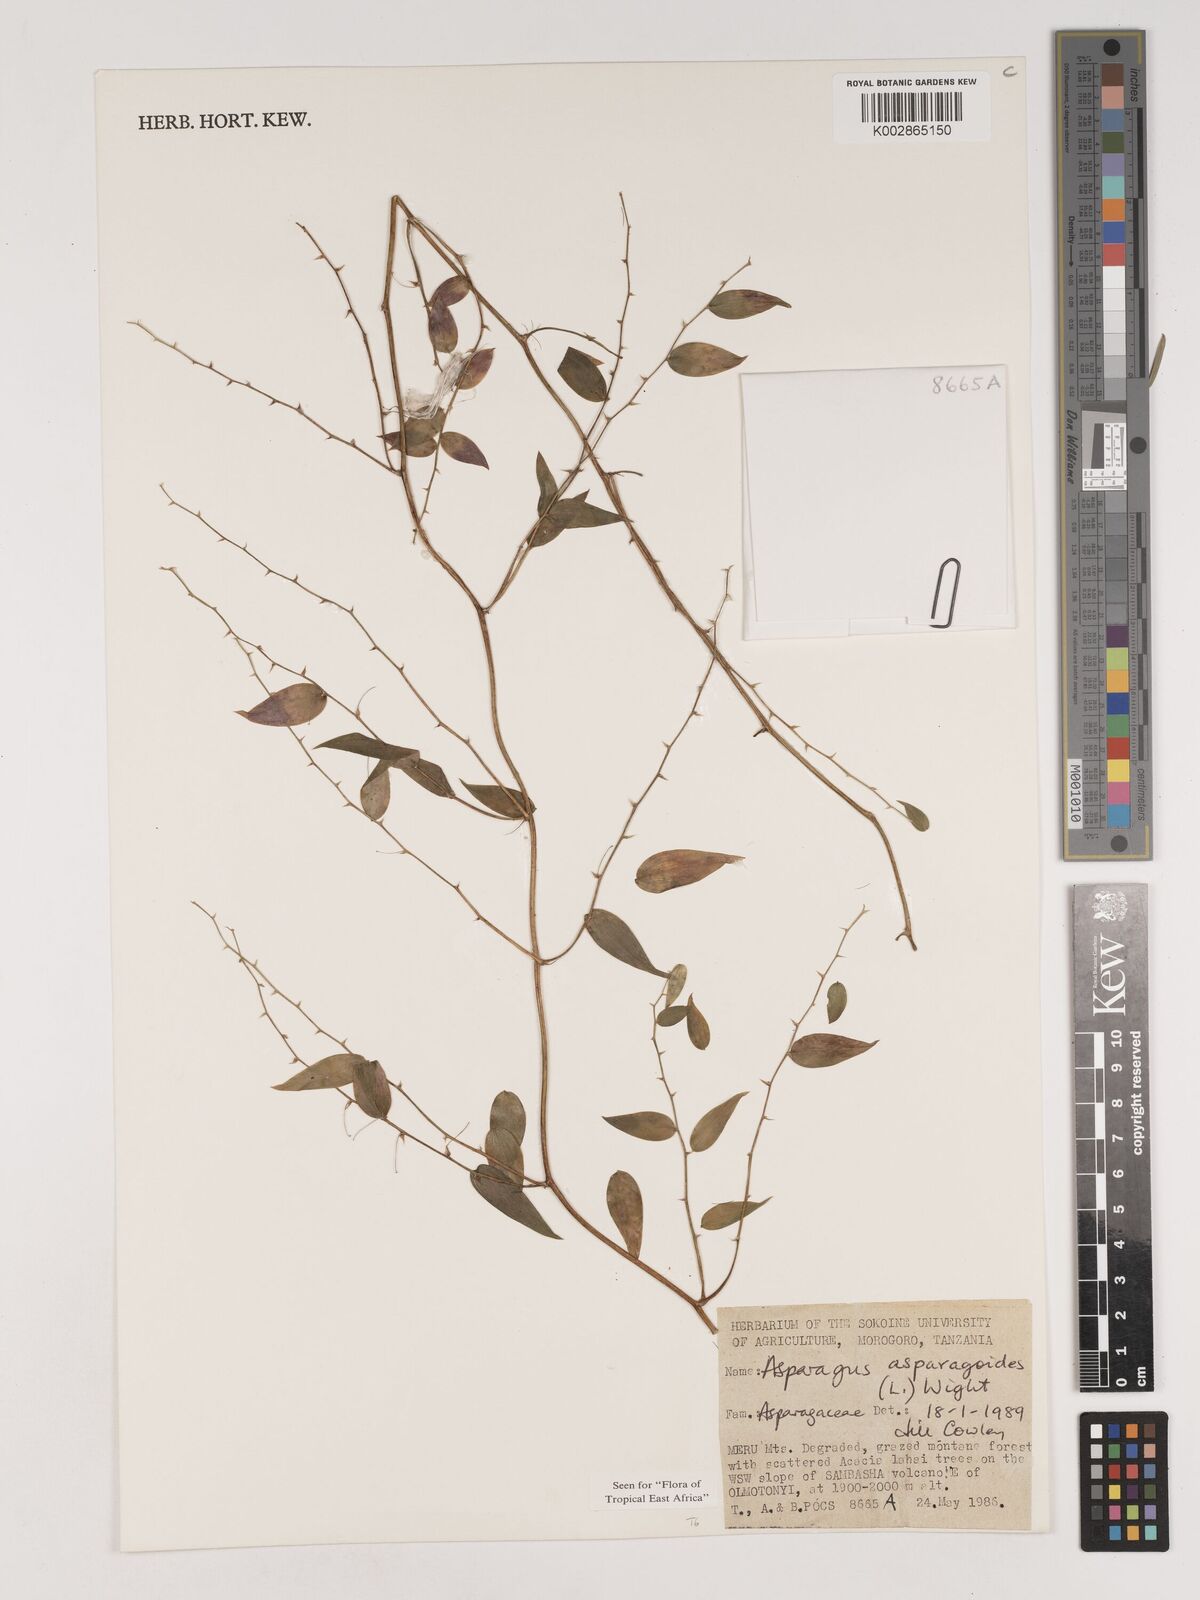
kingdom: Plantae
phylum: Tracheophyta
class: Liliopsida
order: Asparagales
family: Asparagaceae
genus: Asparagus
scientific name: Asparagus asparagoides
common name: African asparagus fern
